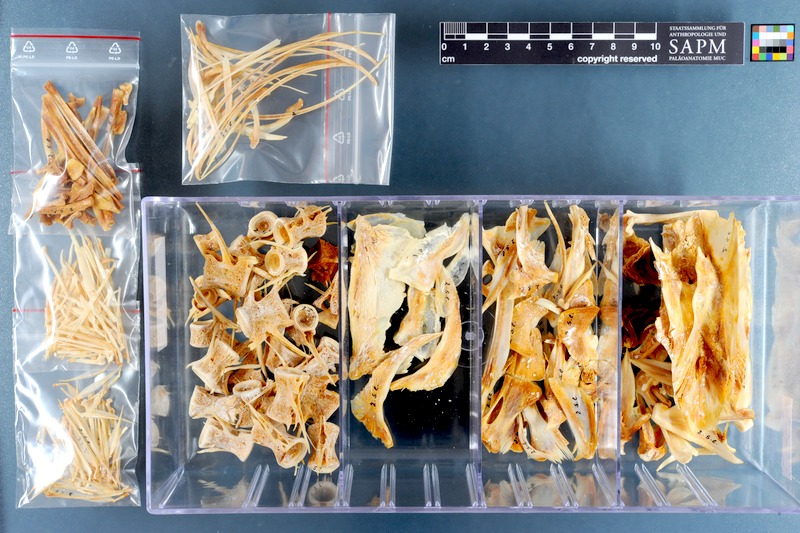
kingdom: Animalia
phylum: Chordata
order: Perciformes
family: Carangidae
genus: Seriola
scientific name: Seriola lalandi
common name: Yellowtail kingfish
